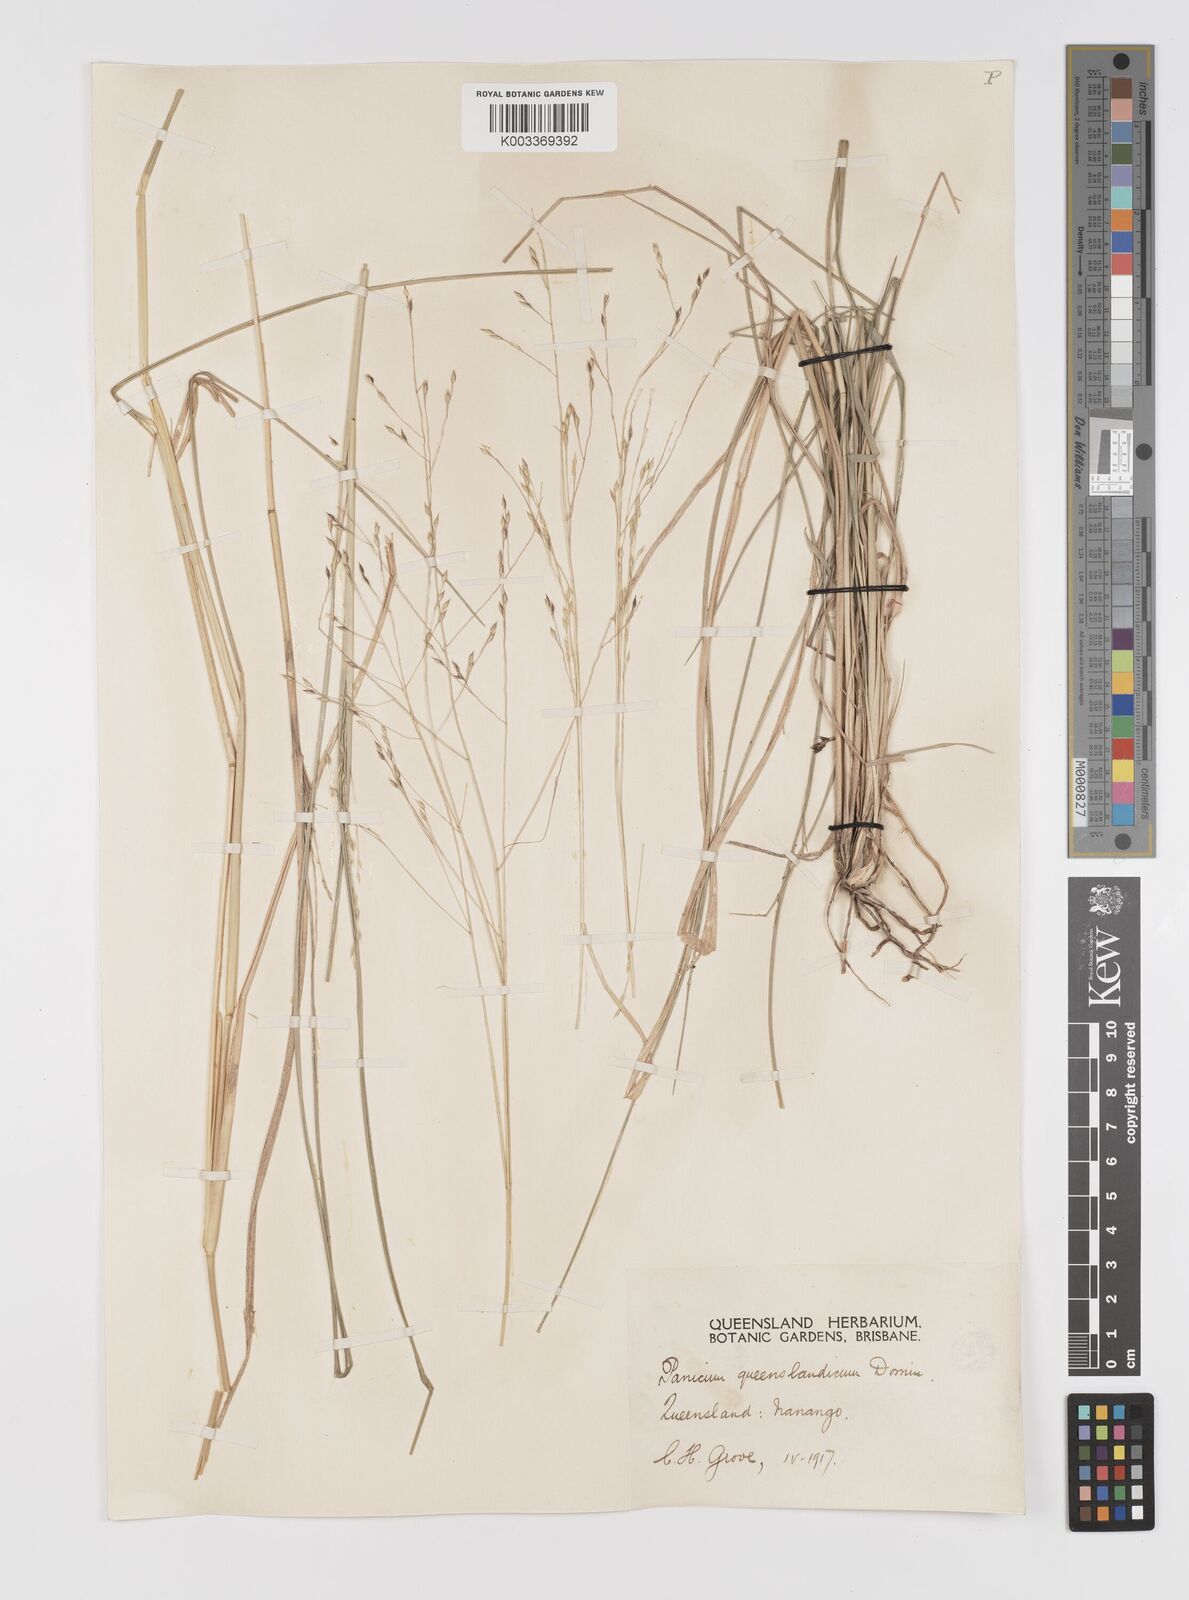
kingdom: Plantae
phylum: Tracheophyta
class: Liliopsida
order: Poales
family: Poaceae
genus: Panicum
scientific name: Panicum queenslandicum
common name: Yabila grass
